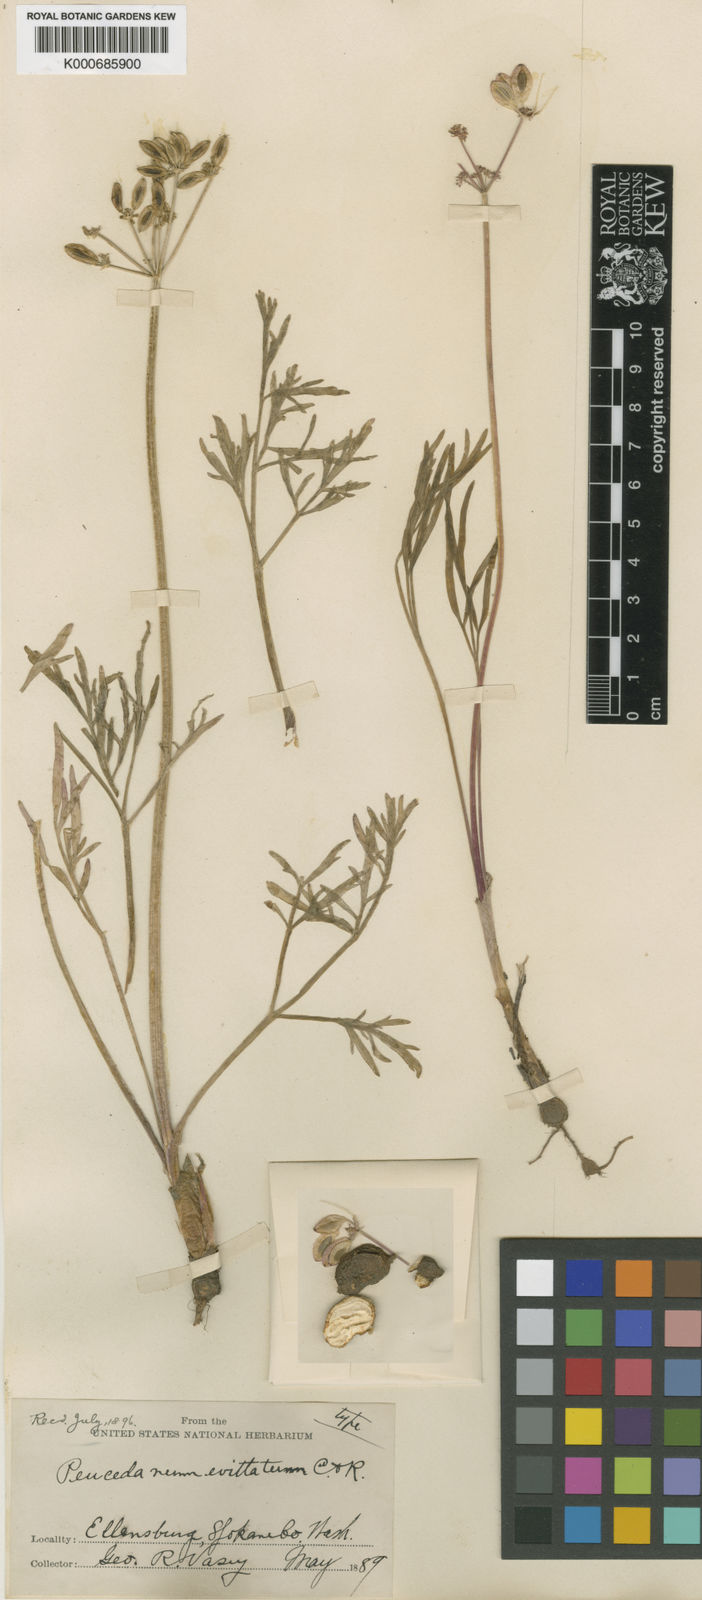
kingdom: Plantae
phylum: Tracheophyta
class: Magnoliopsida
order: Apiales
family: Apiaceae
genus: Lomatium
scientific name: Lomatium geyeri
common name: Geyer's biscuitroot
